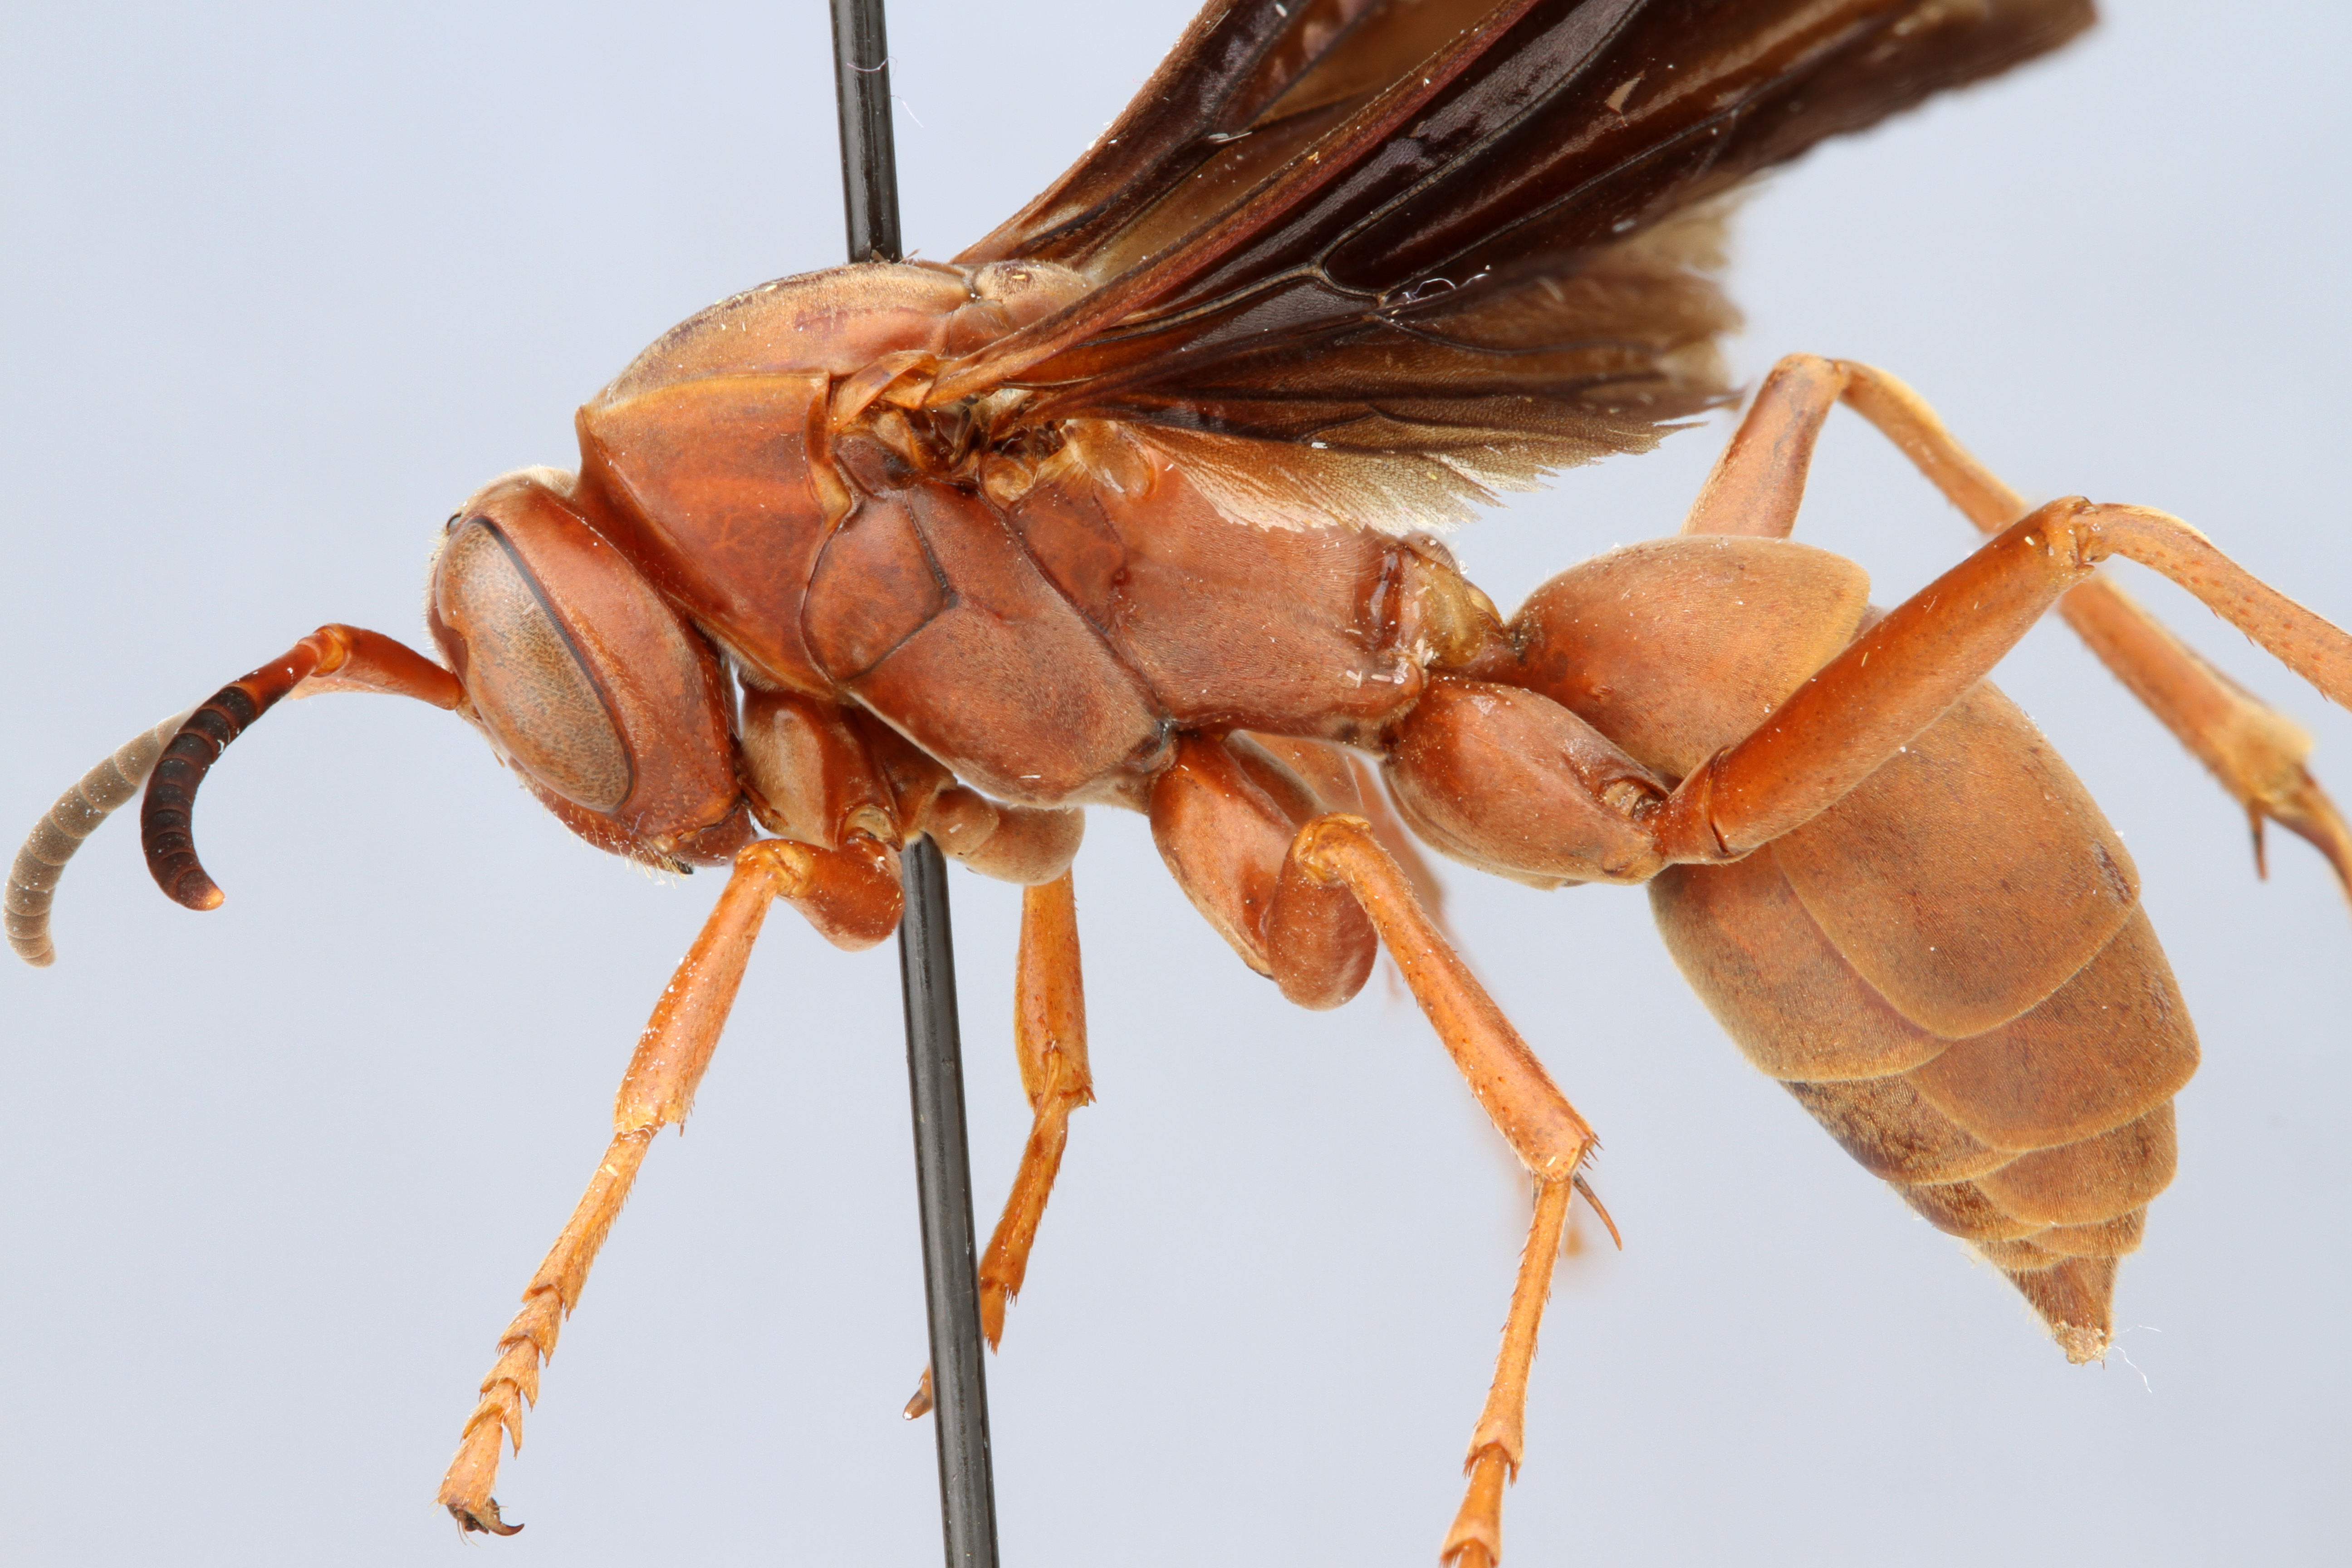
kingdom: Animalia
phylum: Arthropoda
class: Insecta
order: Hymenoptera
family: Eumenidae
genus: Polistes
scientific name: Polistes carolina
